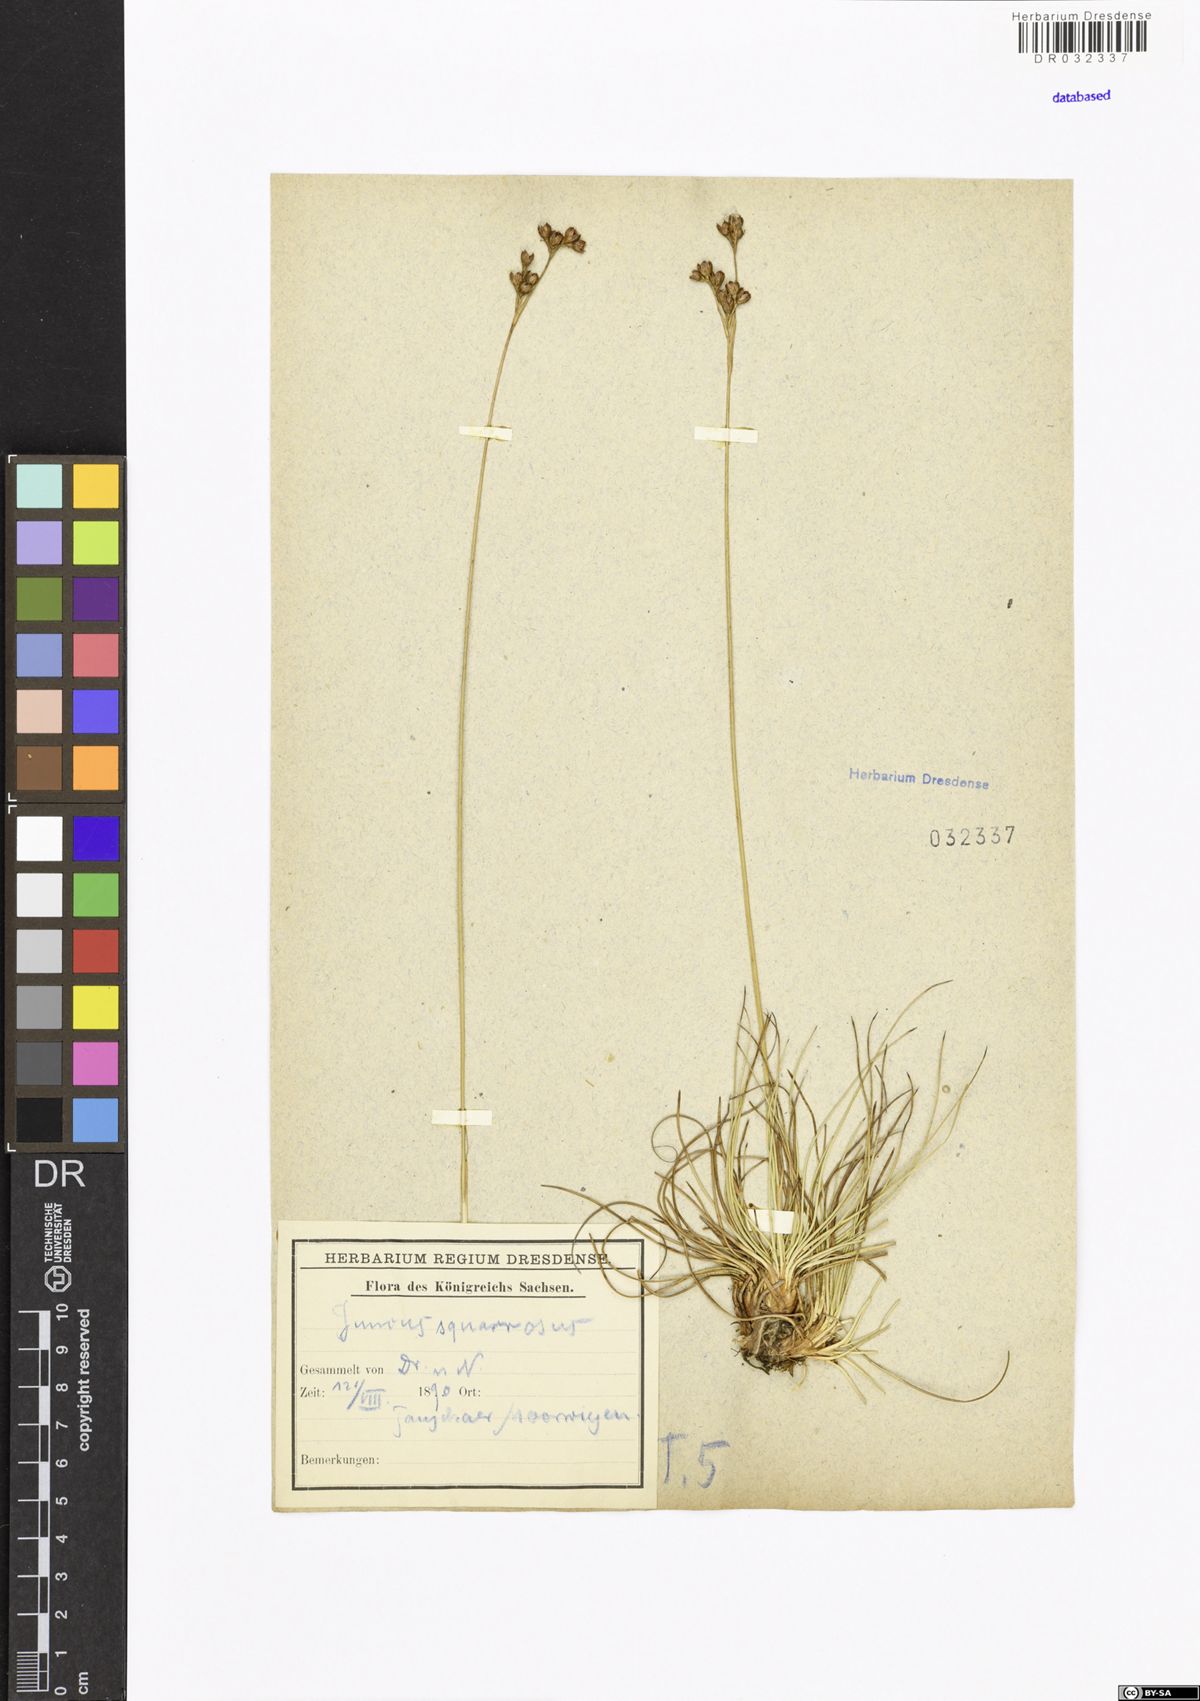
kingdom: Plantae
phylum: Tracheophyta
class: Liliopsida
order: Poales
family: Juncaceae
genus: Juncus
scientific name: Juncus squarrosus
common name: Heath rush
